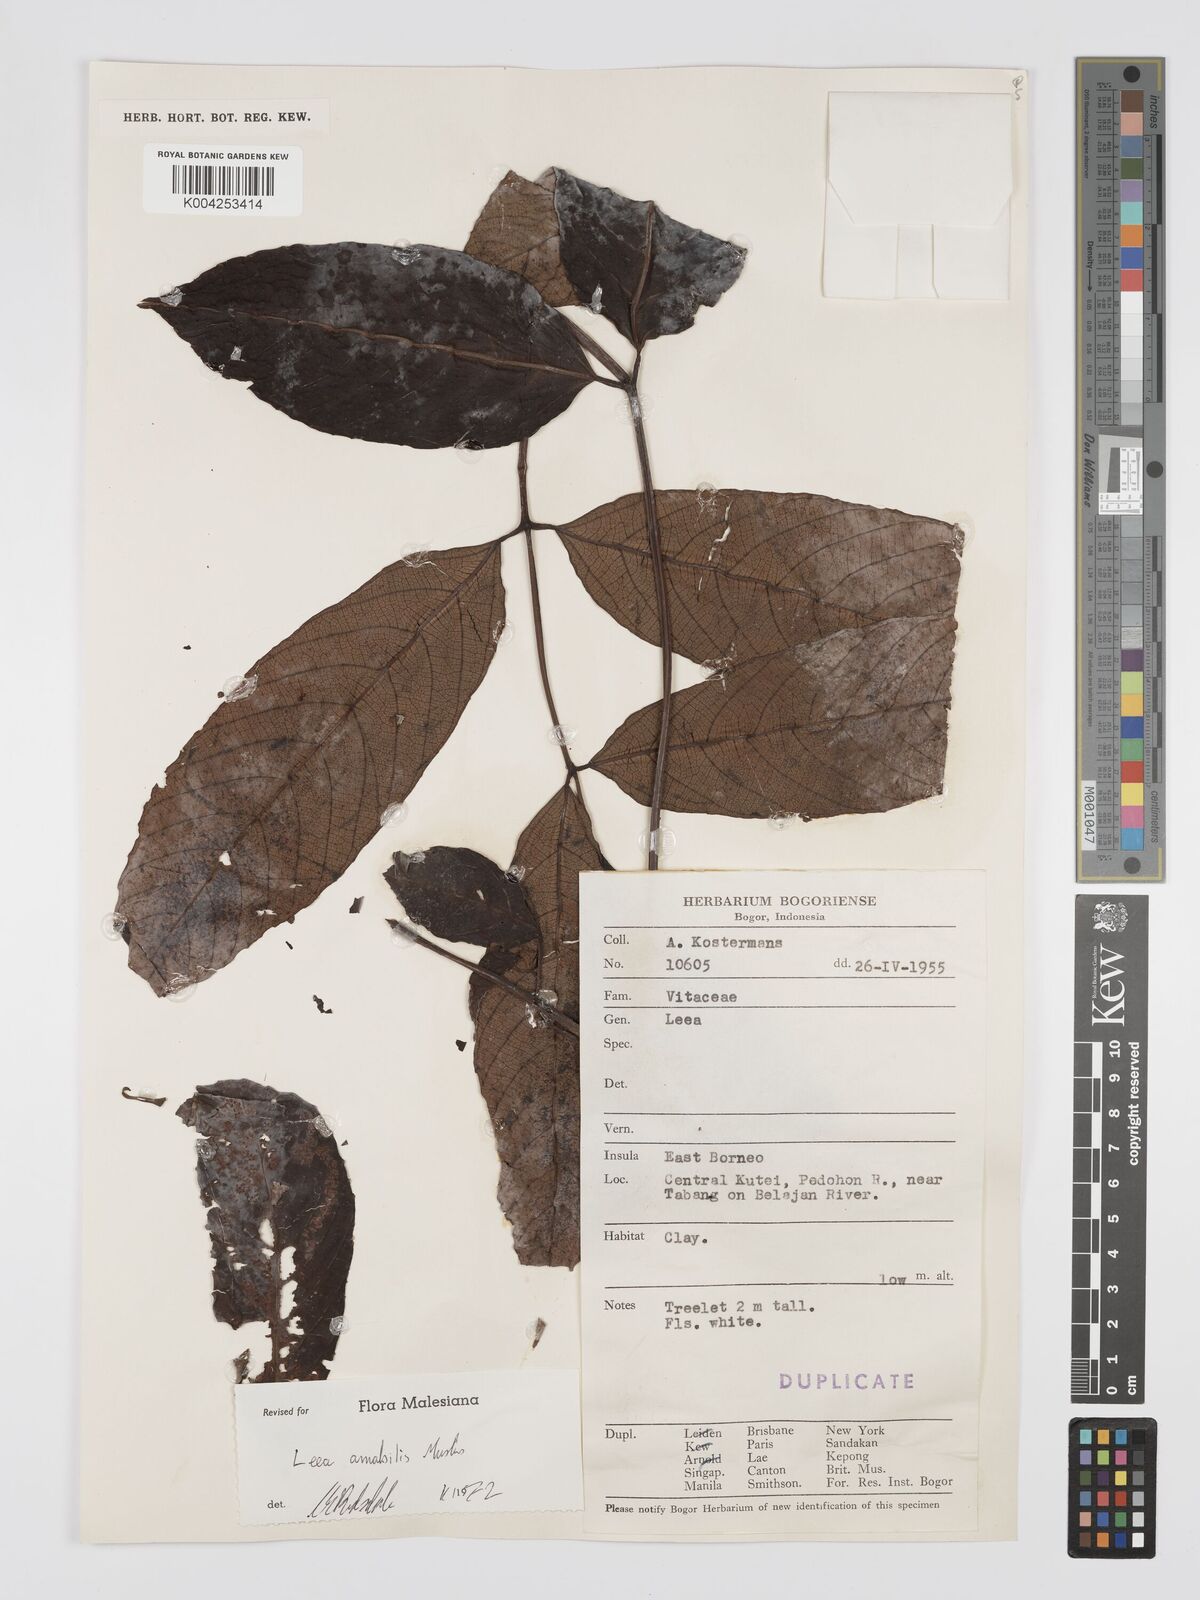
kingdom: Plantae
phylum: Tracheophyta
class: Magnoliopsida
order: Vitales
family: Vitaceae
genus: Leea
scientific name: Leea amabilis
